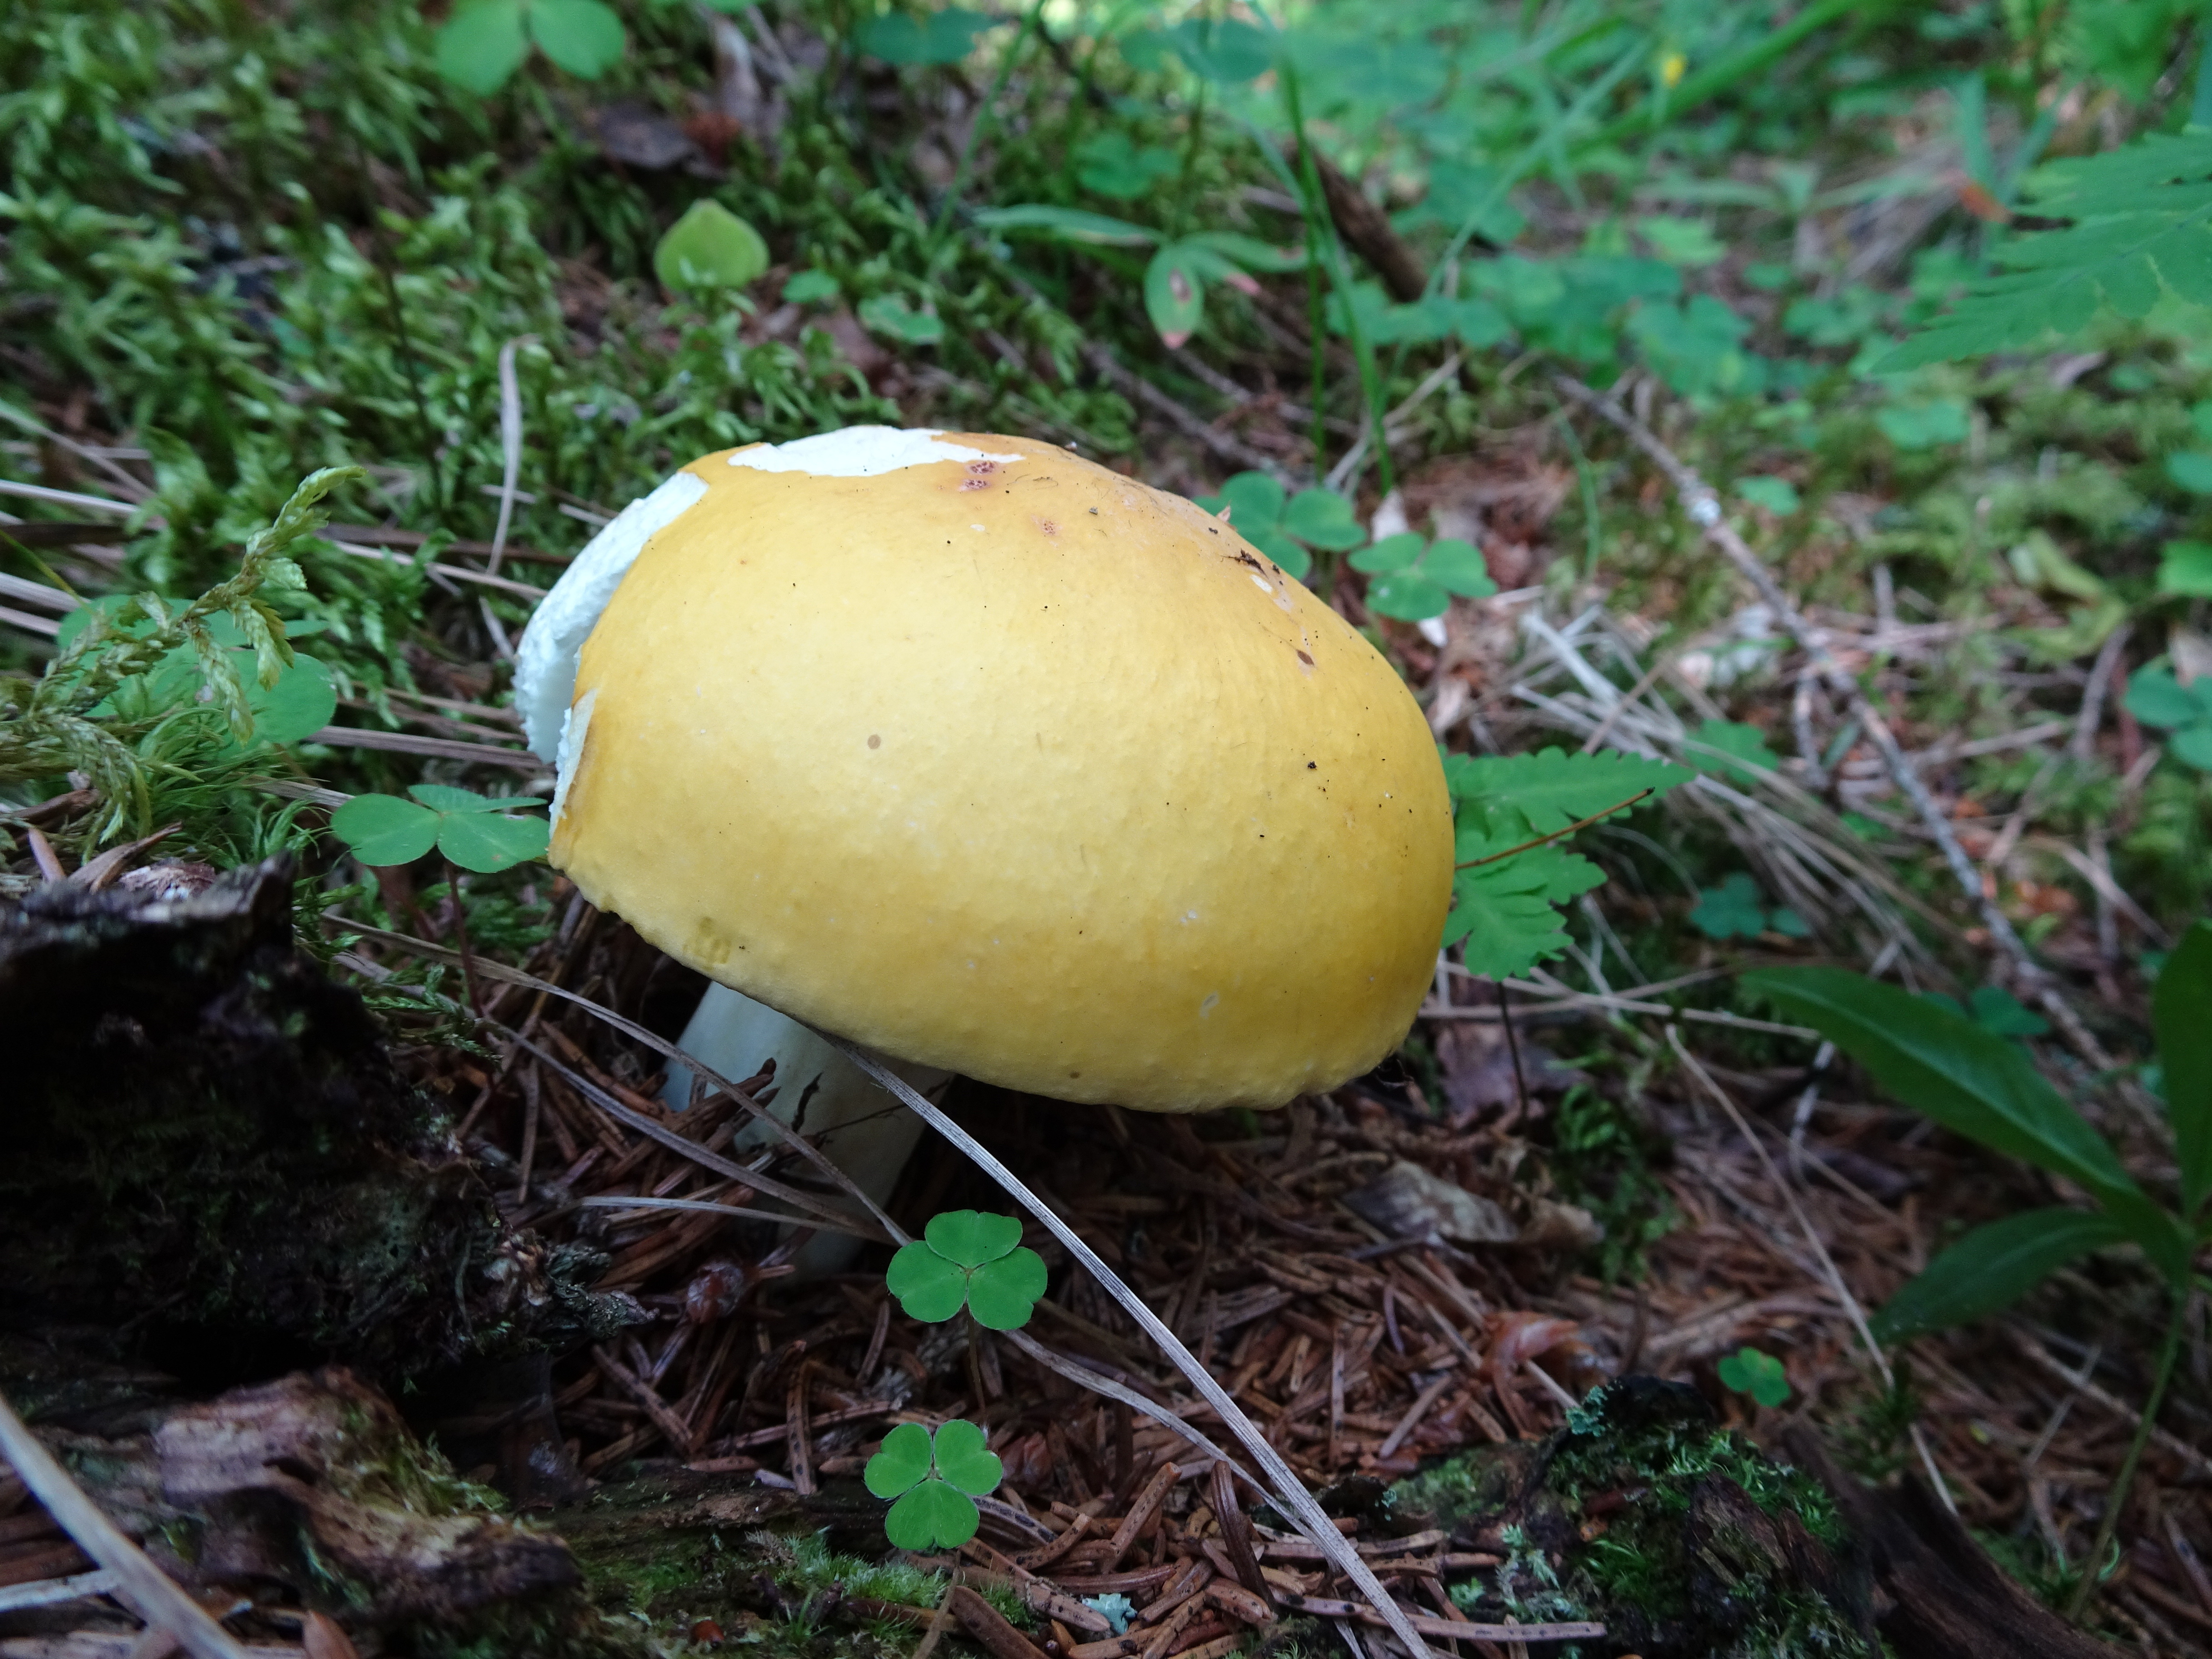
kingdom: Fungi
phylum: Basidiomycota
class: Agaricomycetes
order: Russulales
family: Russulaceae
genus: Russula
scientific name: Russula claroflava
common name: The yellow swamp brittlegill
